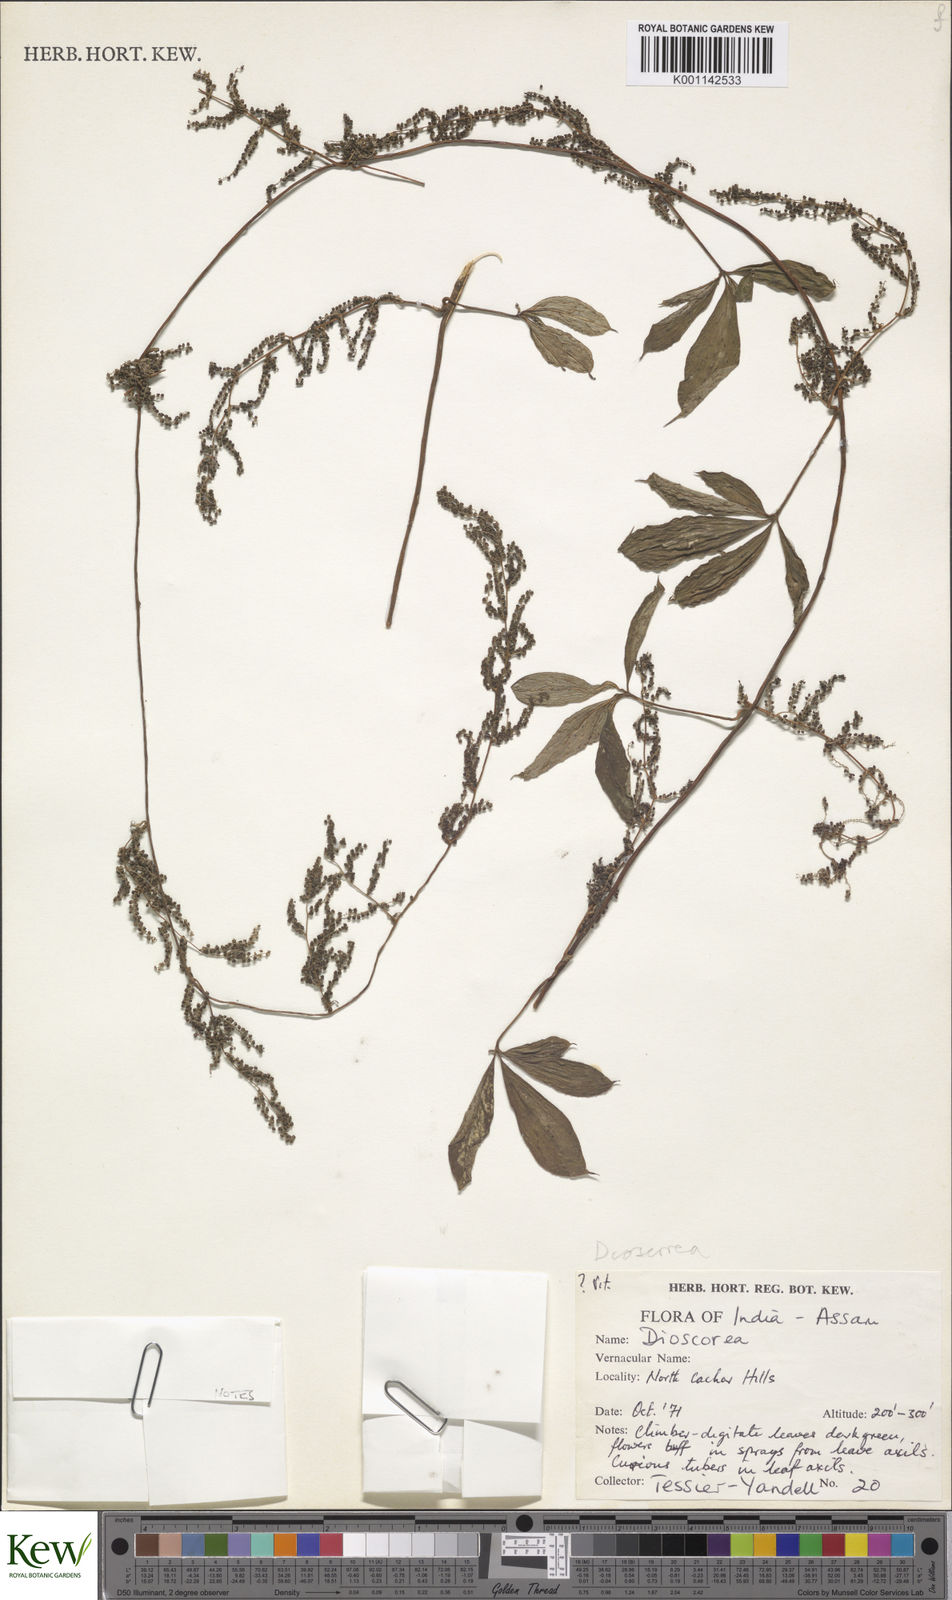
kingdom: Plantae
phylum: Tracheophyta
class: Liliopsida
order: Dioscoreales
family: Dioscoreaceae
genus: Dioscorea
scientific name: Dioscorea pentaphylla
